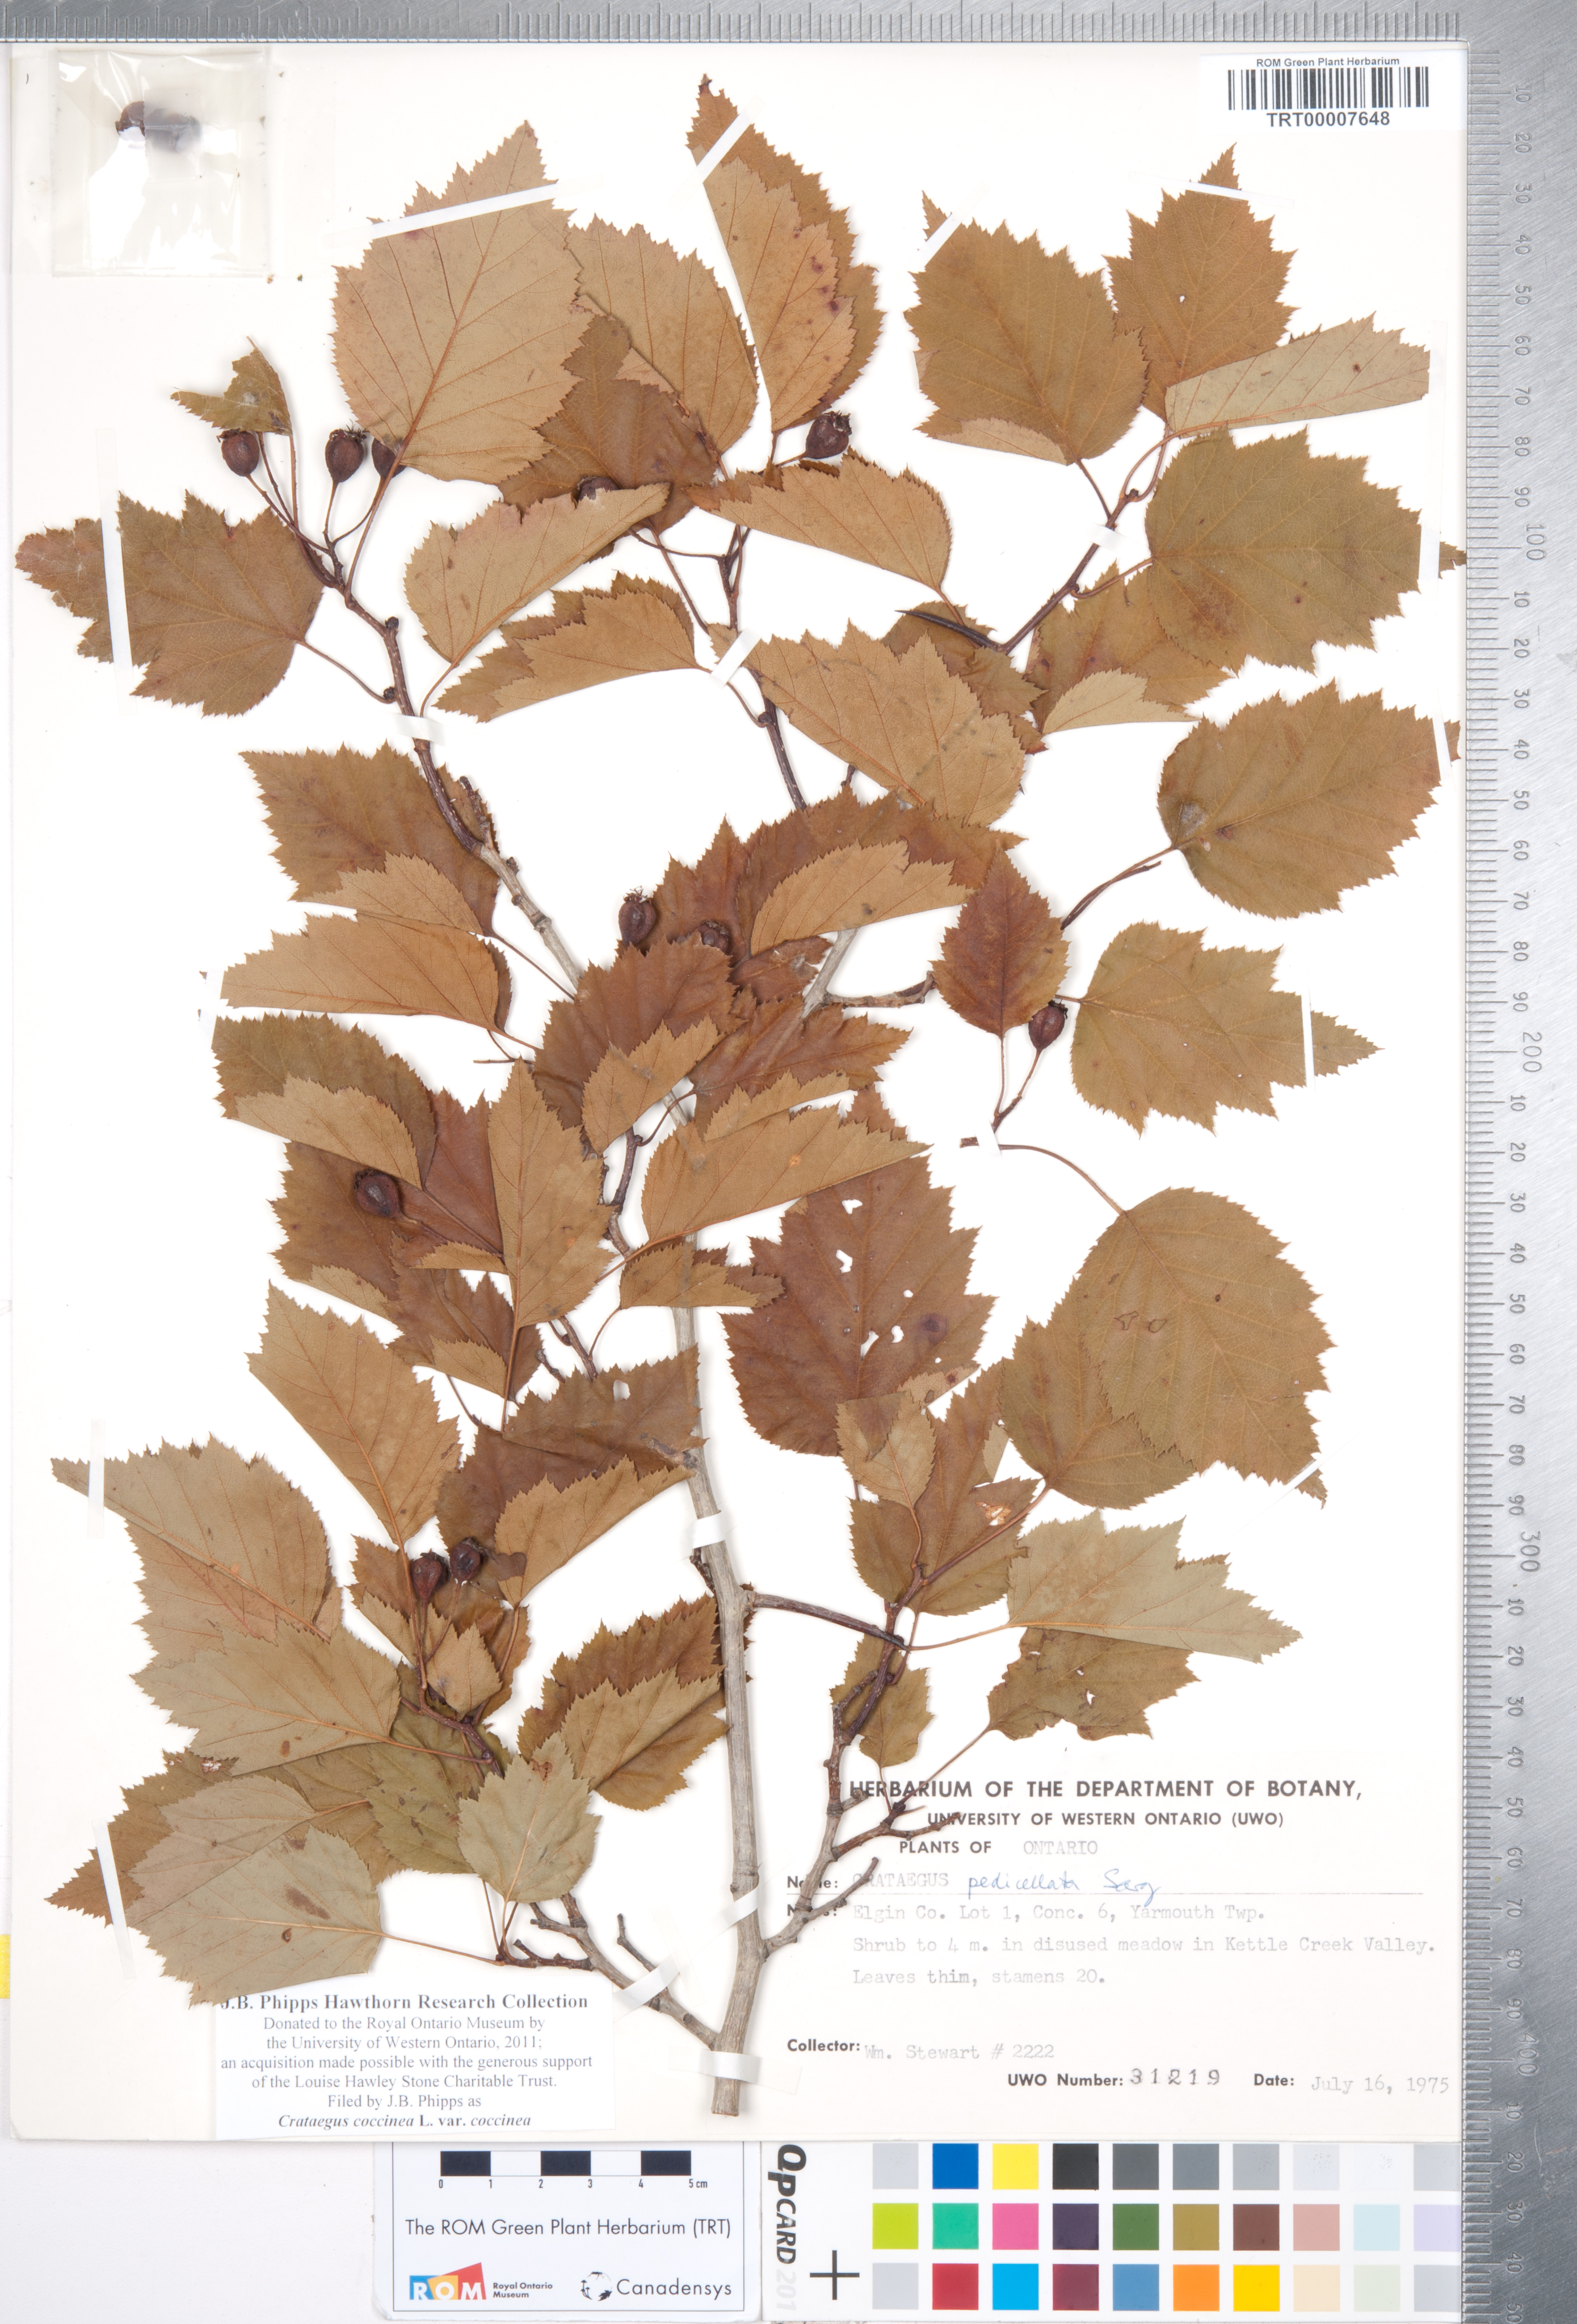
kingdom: Plantae
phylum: Tracheophyta
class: Magnoliopsida
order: Rosales
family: Rosaceae
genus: Crataegus
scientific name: Crataegus coccinea
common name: Scarlet hawthorn
